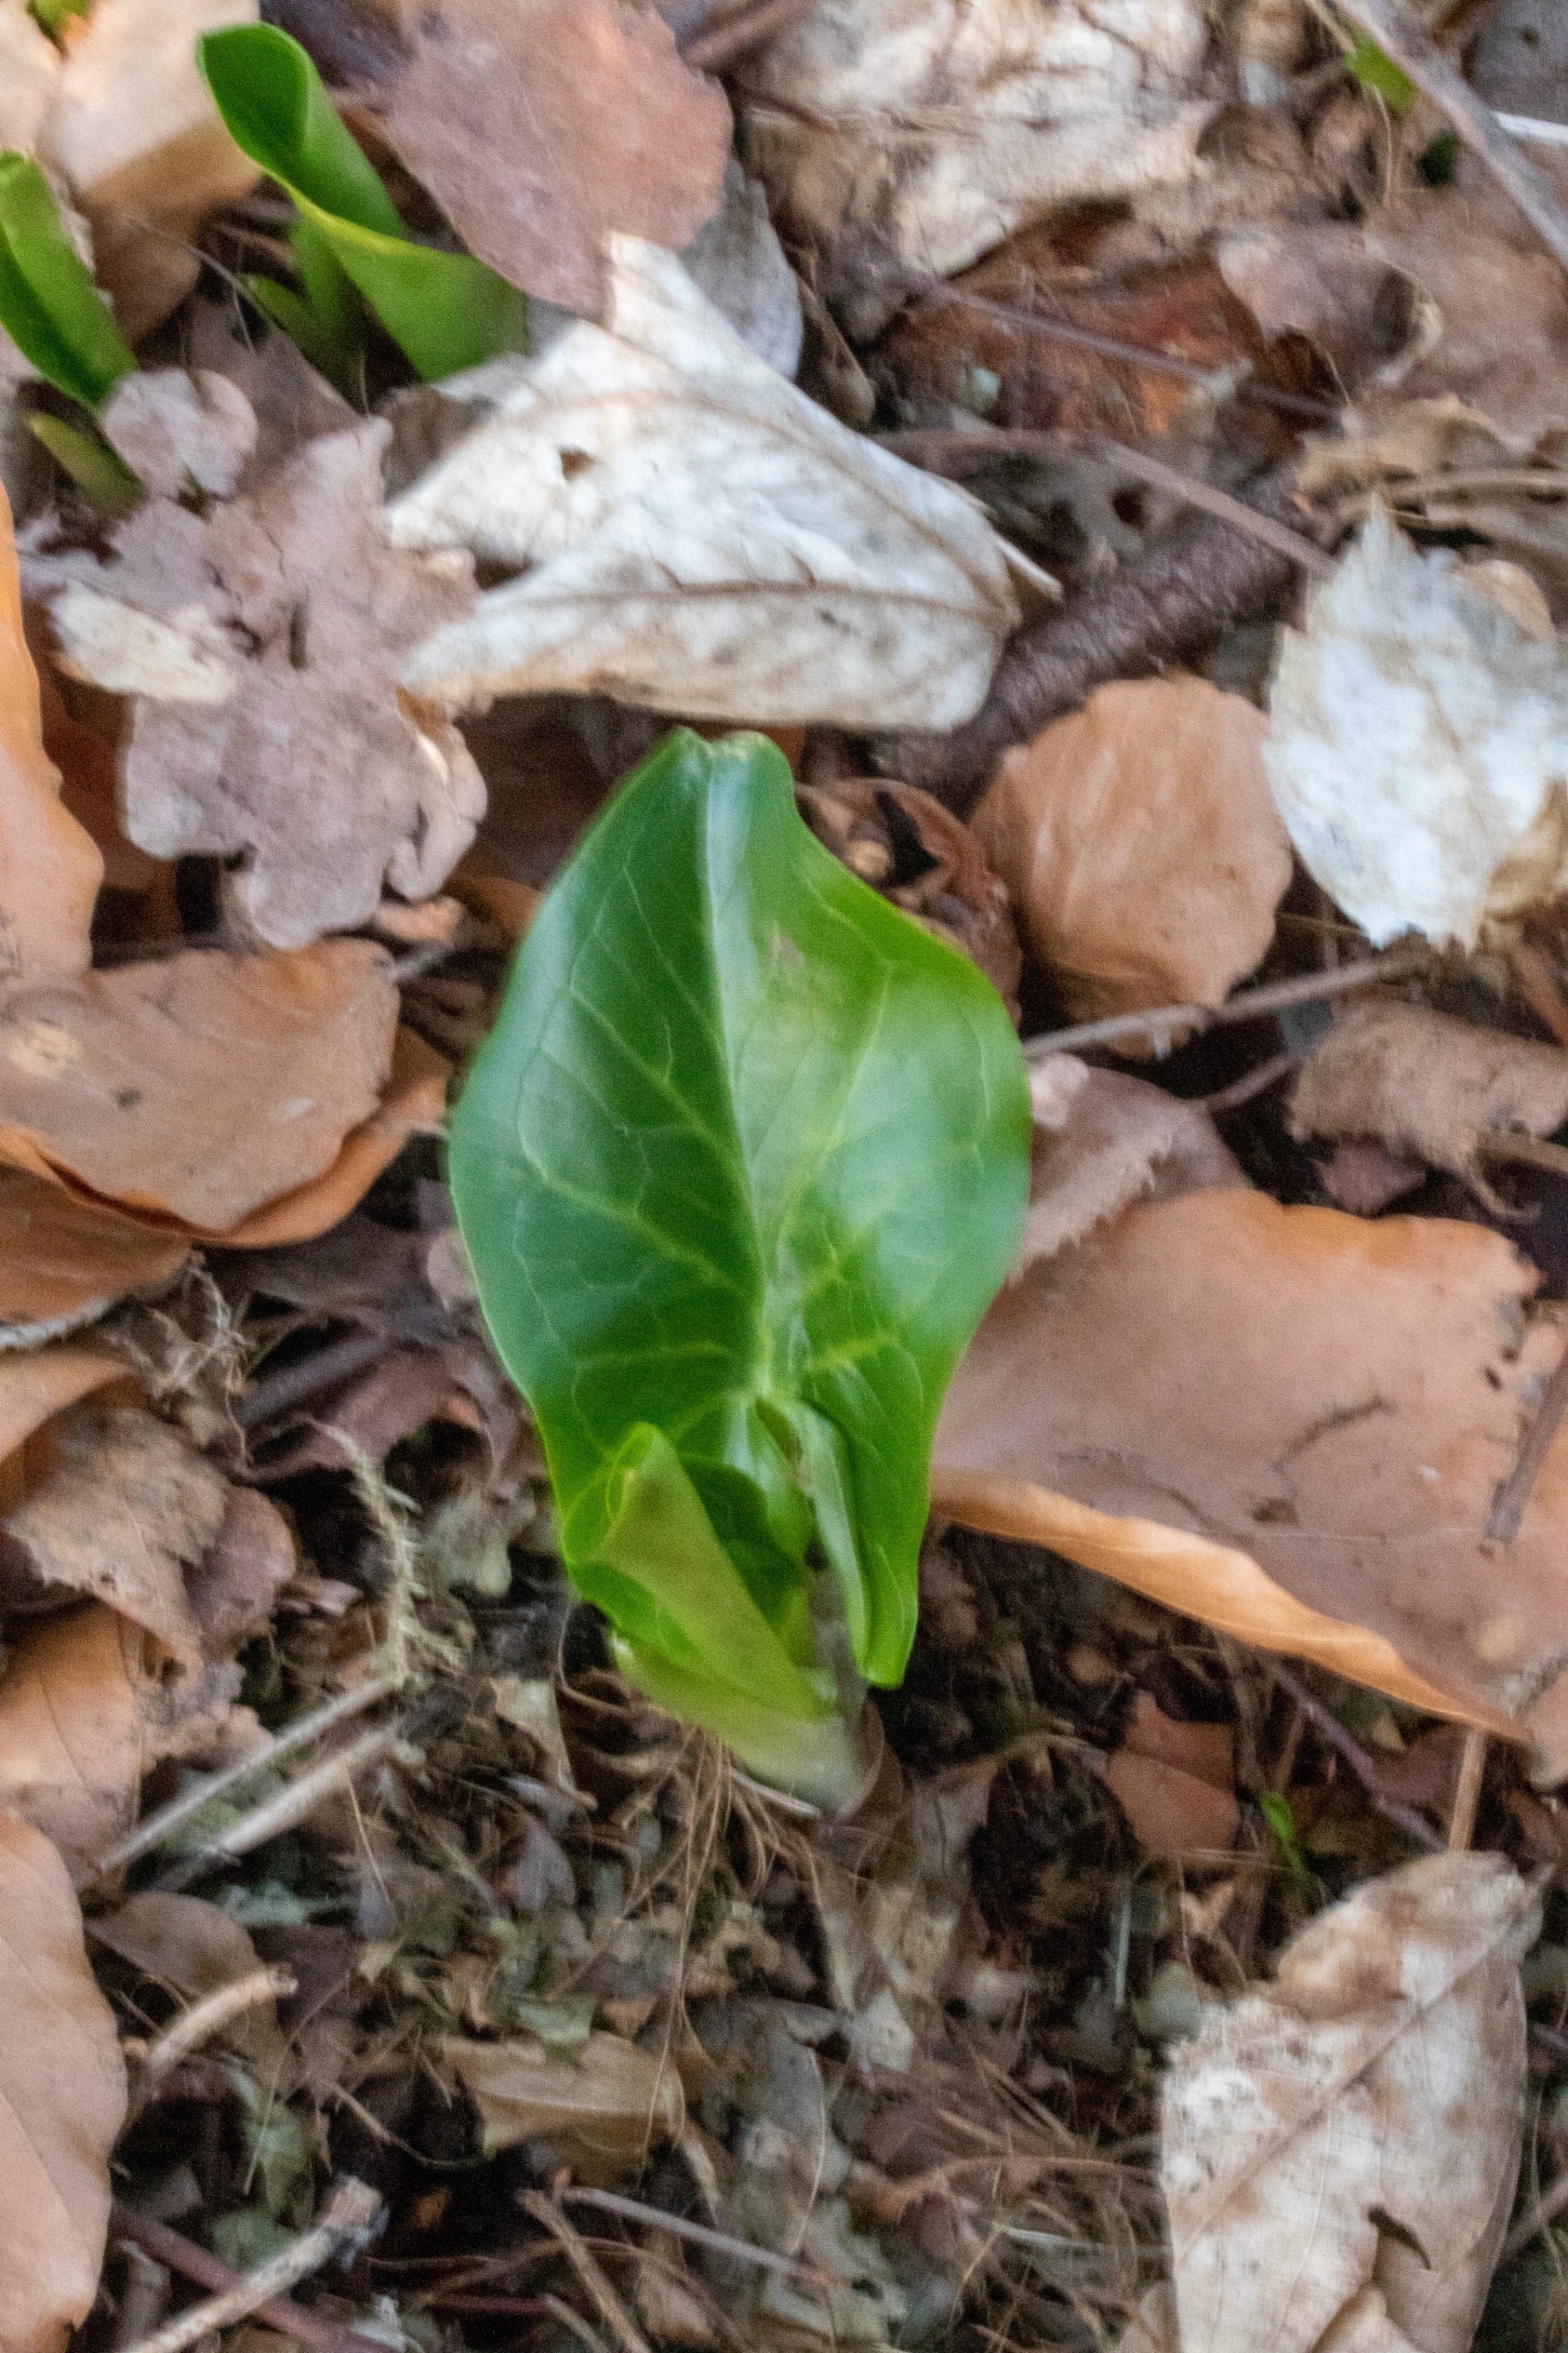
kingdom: Plantae
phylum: Tracheophyta
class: Liliopsida
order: Alismatales
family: Araceae
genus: Arum
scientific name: Arum cylindraceum
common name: Dansk arum
